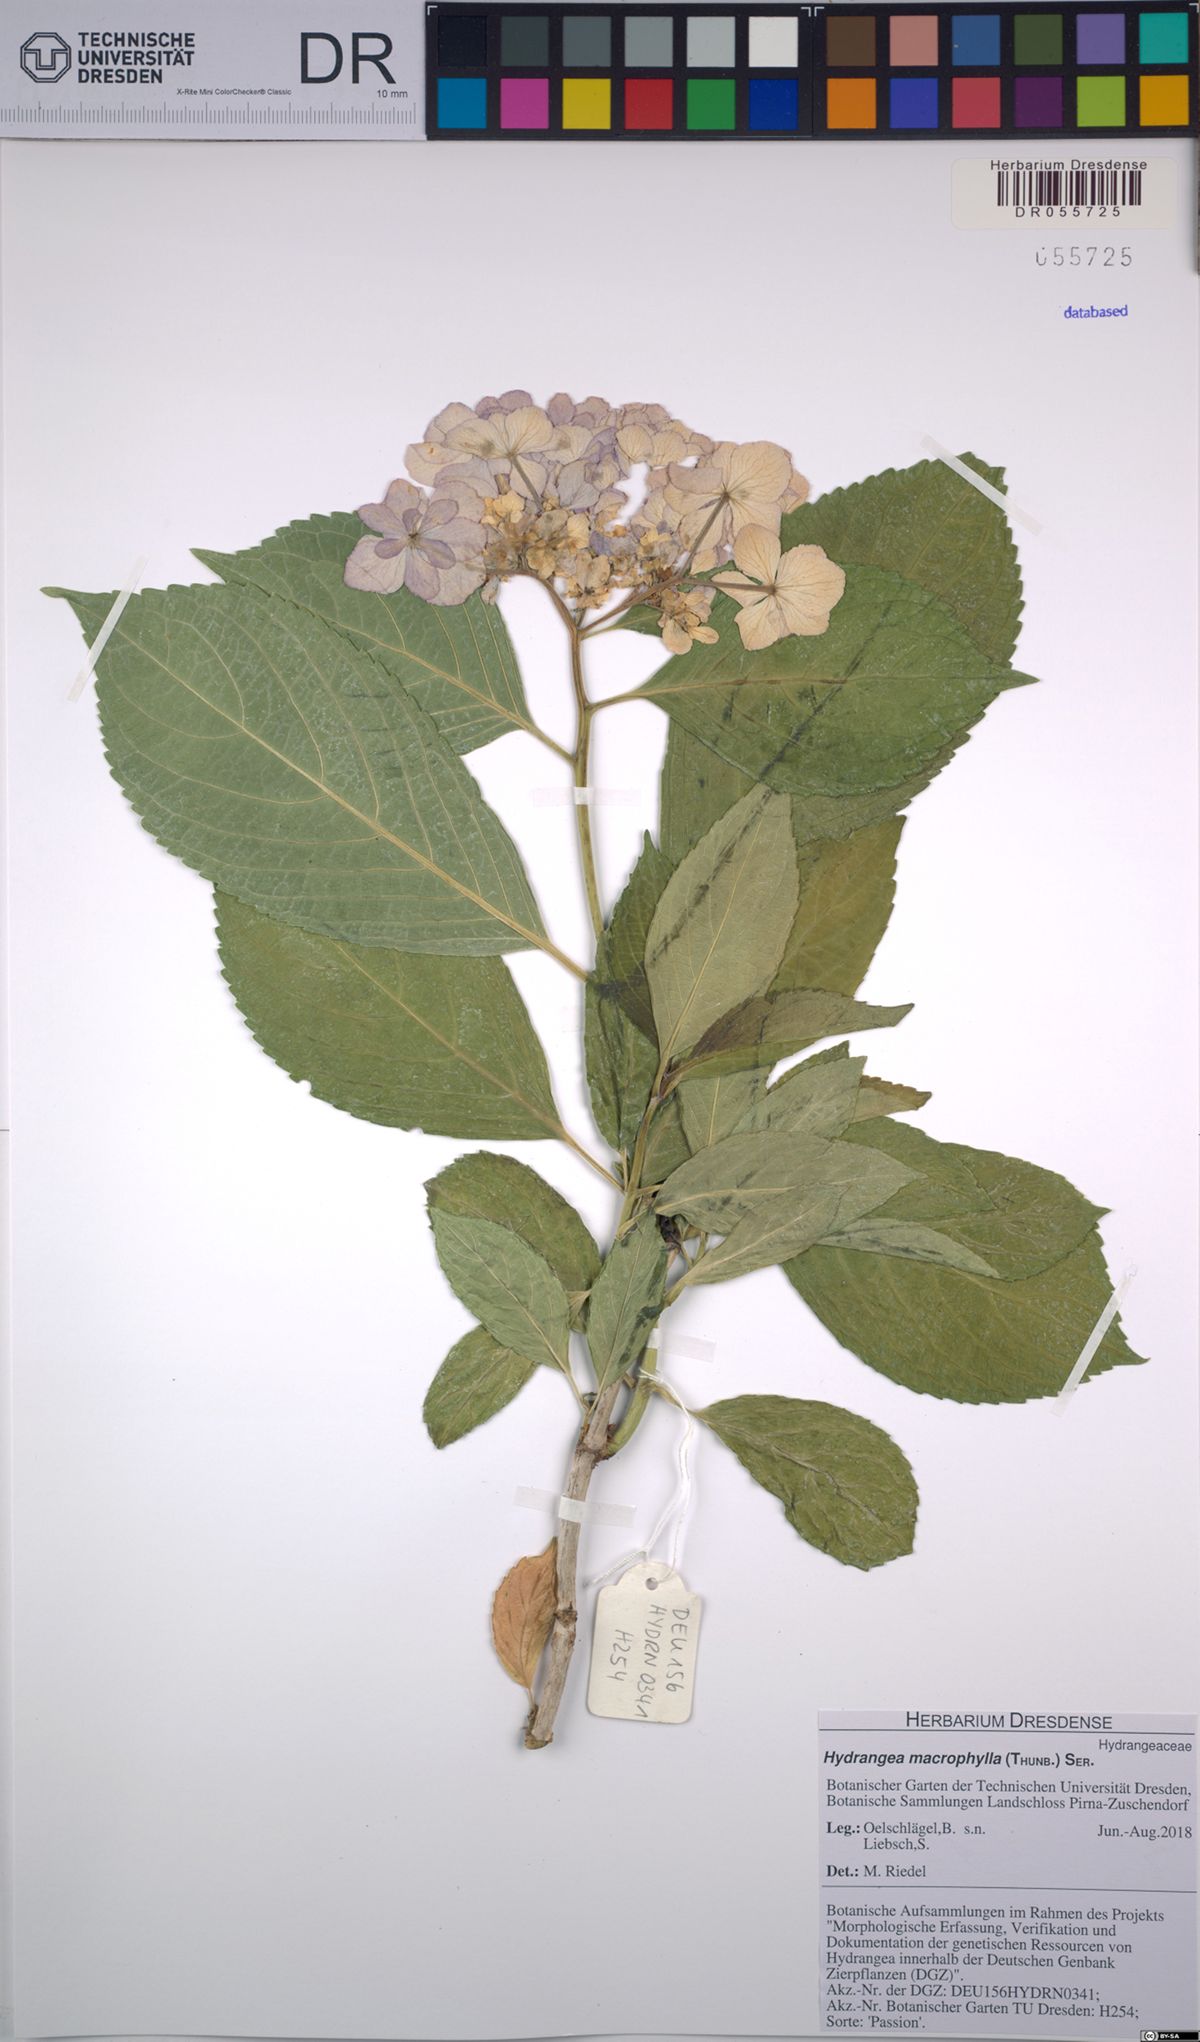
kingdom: Plantae
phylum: Tracheophyta
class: Magnoliopsida
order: Cornales
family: Hydrangeaceae
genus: Hydrangea
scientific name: Hydrangea macrophylla
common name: Hydrangea
